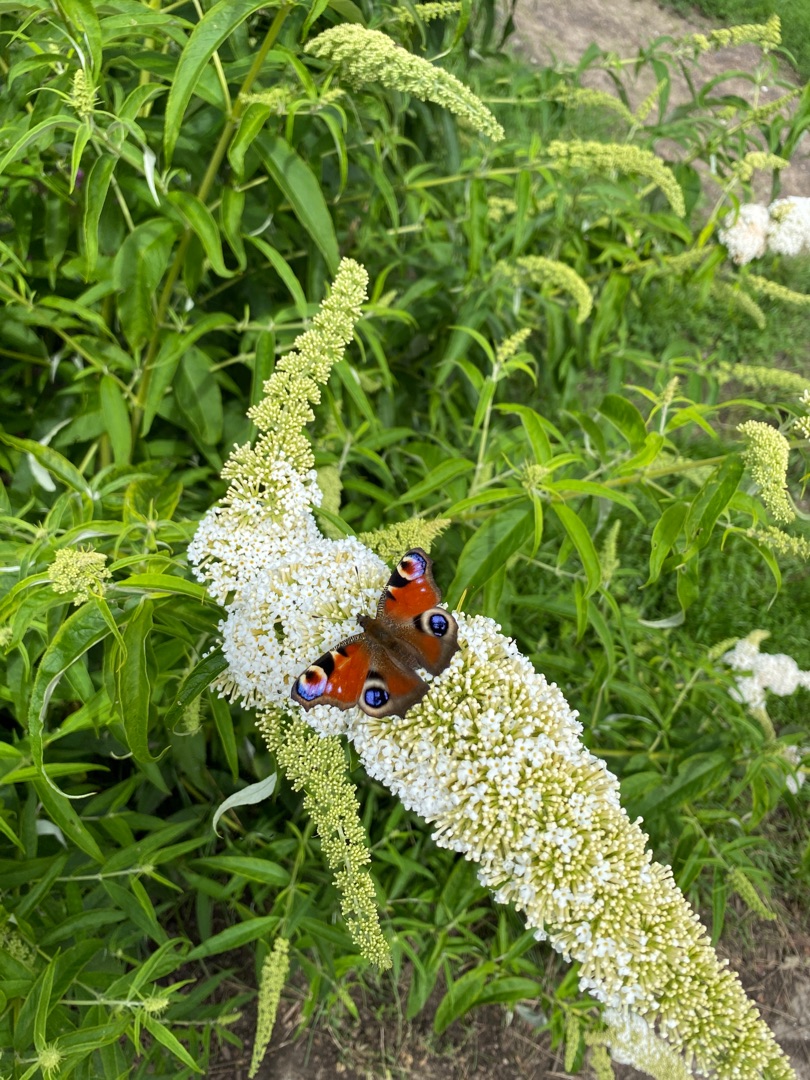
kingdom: Animalia
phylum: Arthropoda
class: Insecta
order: Lepidoptera
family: Nymphalidae
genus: Aglais
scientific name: Aglais io
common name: Dagpåfugleøje
